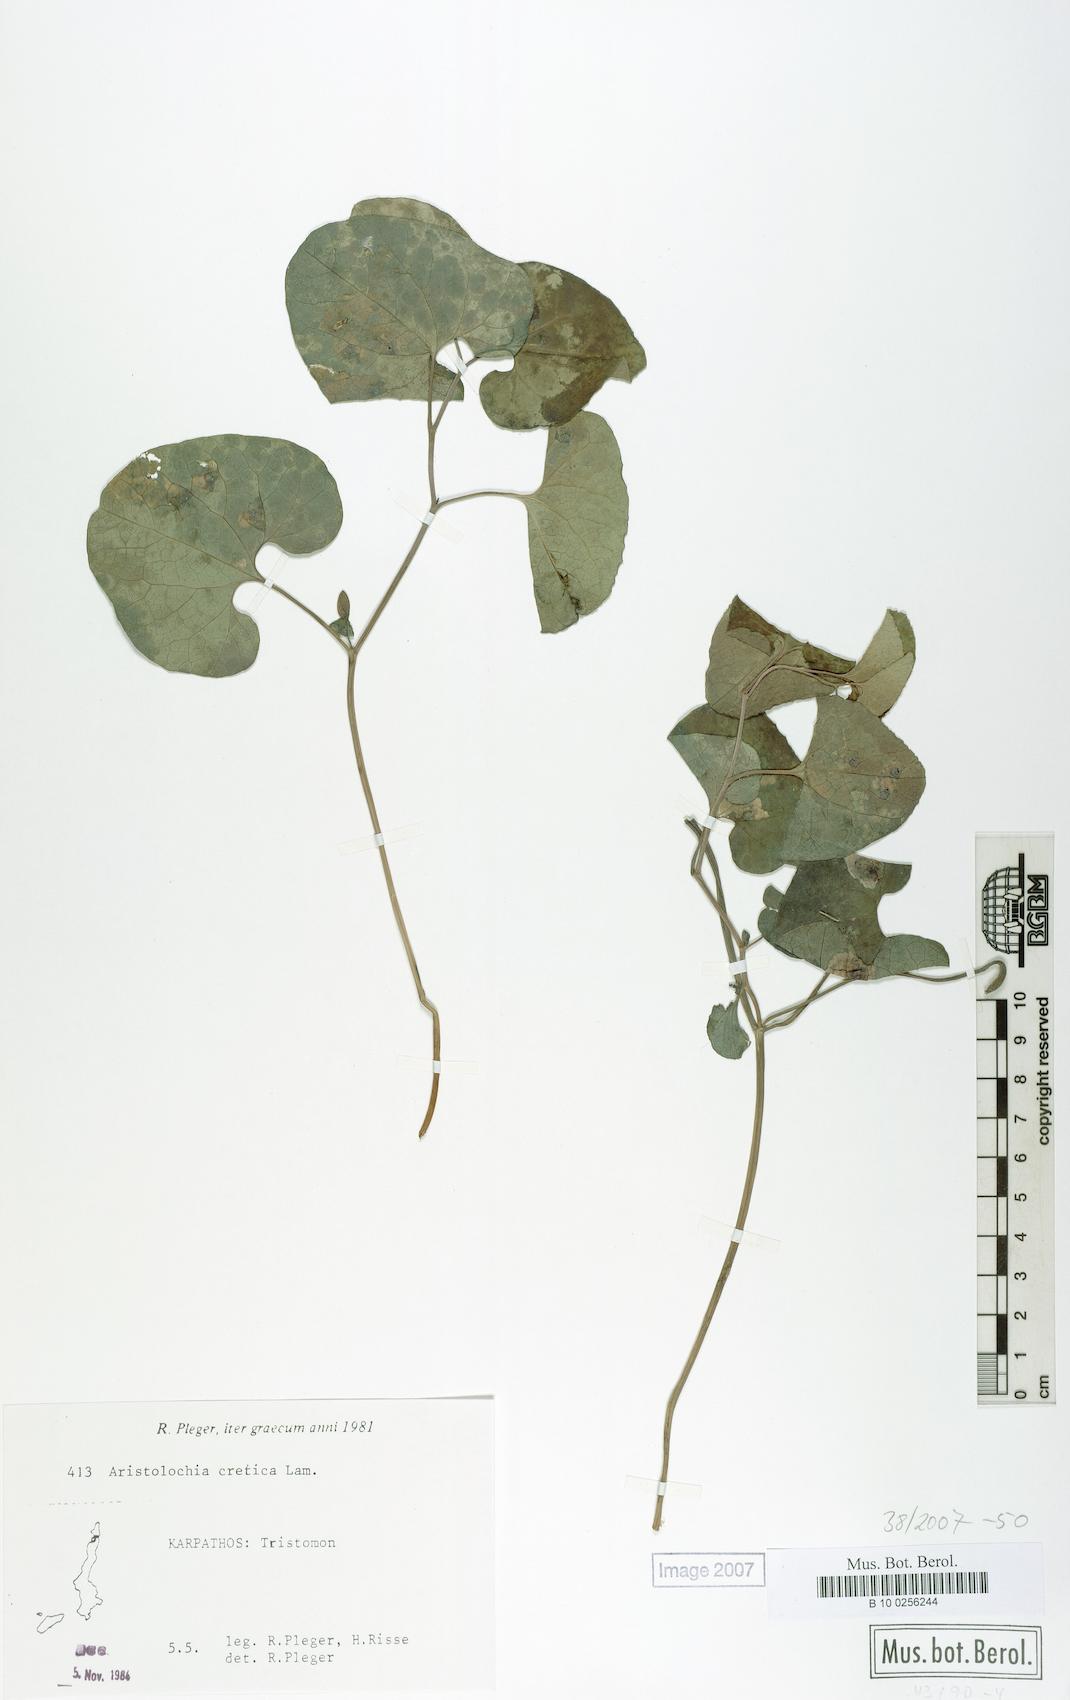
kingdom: Plantae
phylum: Tracheophyta
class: Magnoliopsida
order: Piperales
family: Aristolochiaceae
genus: Aristolochia
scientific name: Aristolochia cretica
